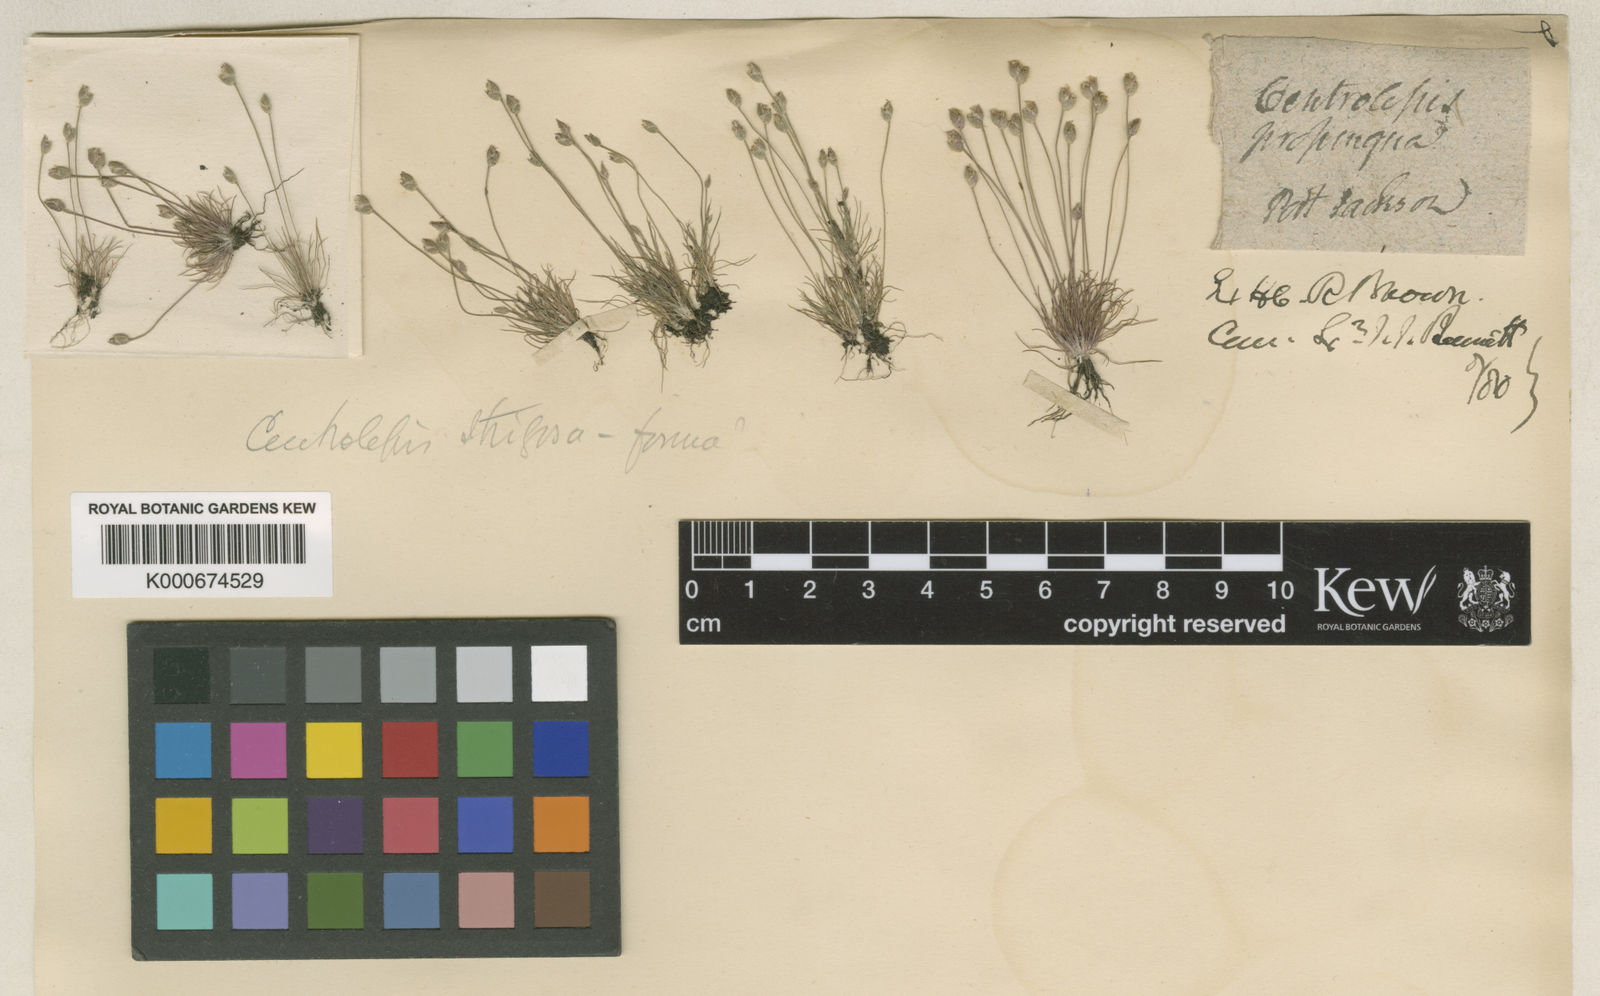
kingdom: Plantae
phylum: Tracheophyta
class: Liliopsida
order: Poales
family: Restionaceae
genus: Centrolepis
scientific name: Centrolepis strigosa
